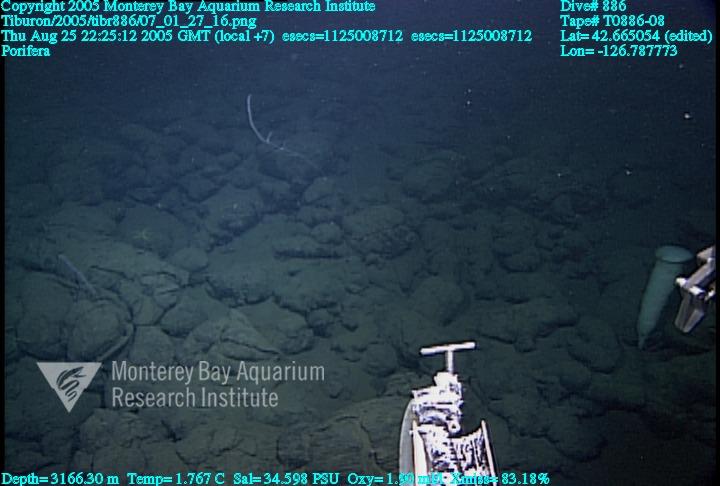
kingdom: Animalia
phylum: Porifera
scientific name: Porifera
